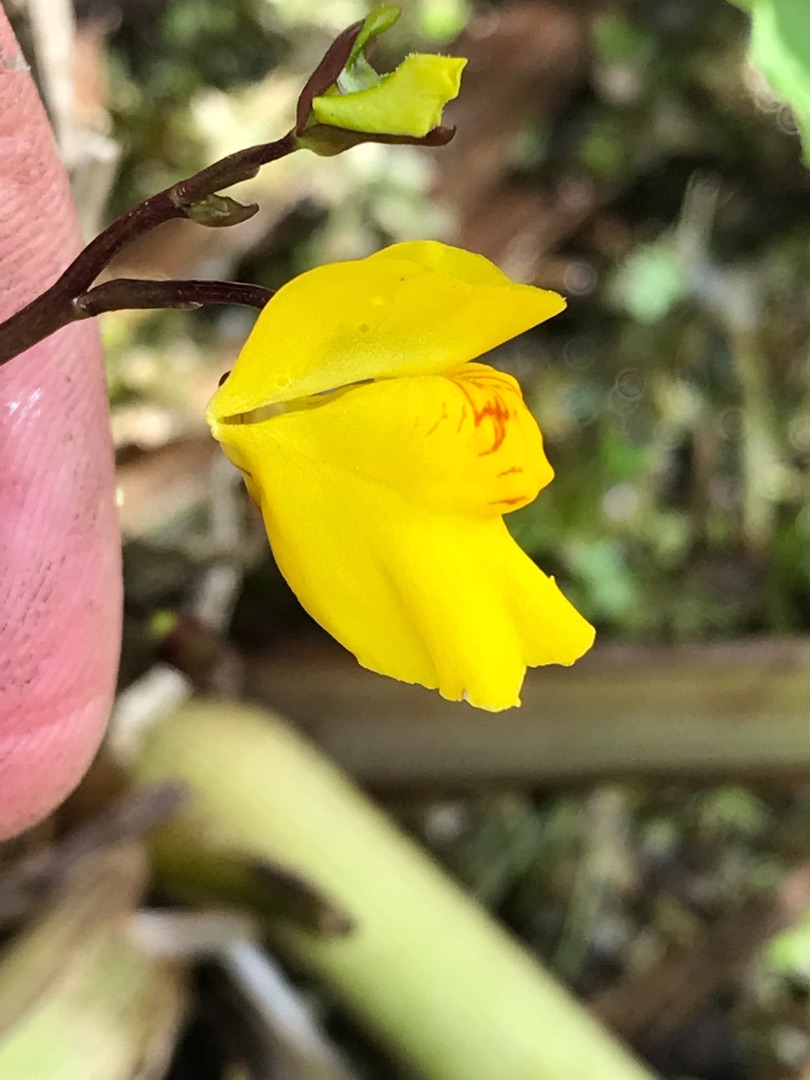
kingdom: Plantae
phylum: Tracheophyta
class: Magnoliopsida
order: Lamiales
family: Lentibulariaceae
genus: Utricularia
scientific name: Utricularia vulgaris
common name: Almindelig blærerod
